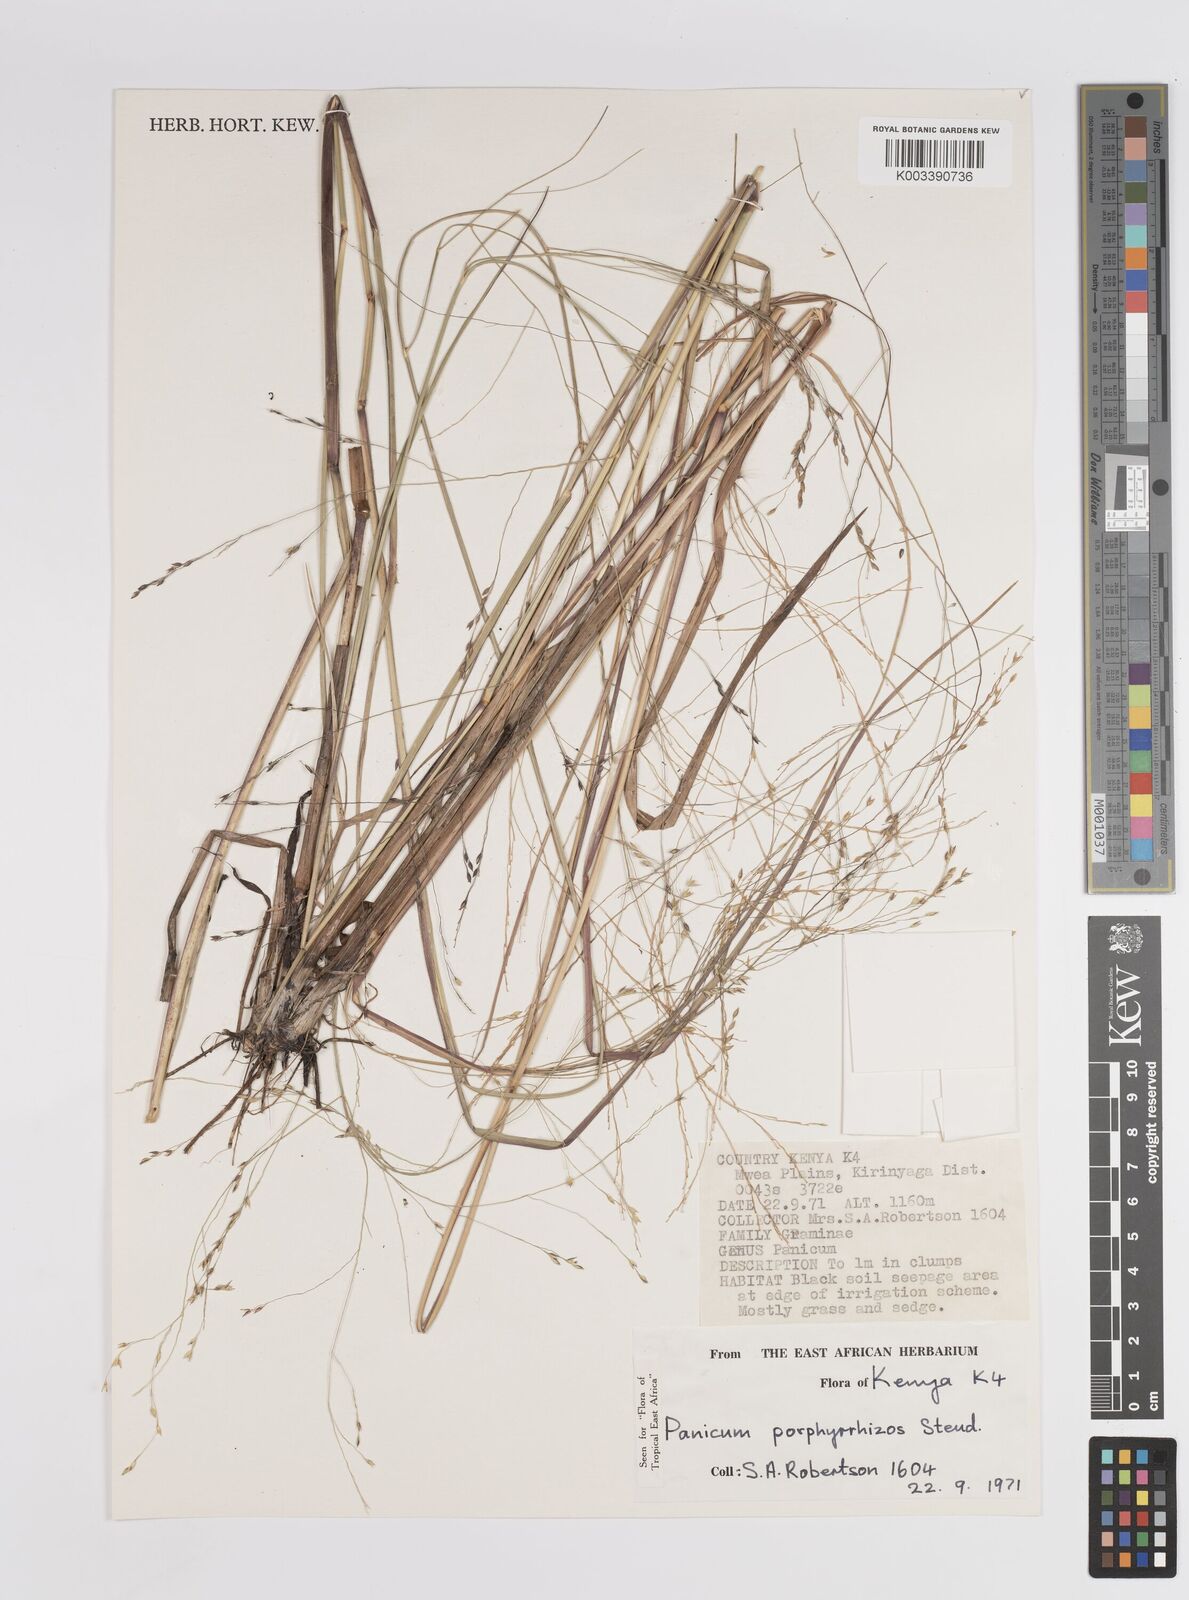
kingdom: Plantae
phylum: Tracheophyta
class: Liliopsida
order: Poales
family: Poaceae
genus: Panicum
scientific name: Panicum porphyrrhizos
